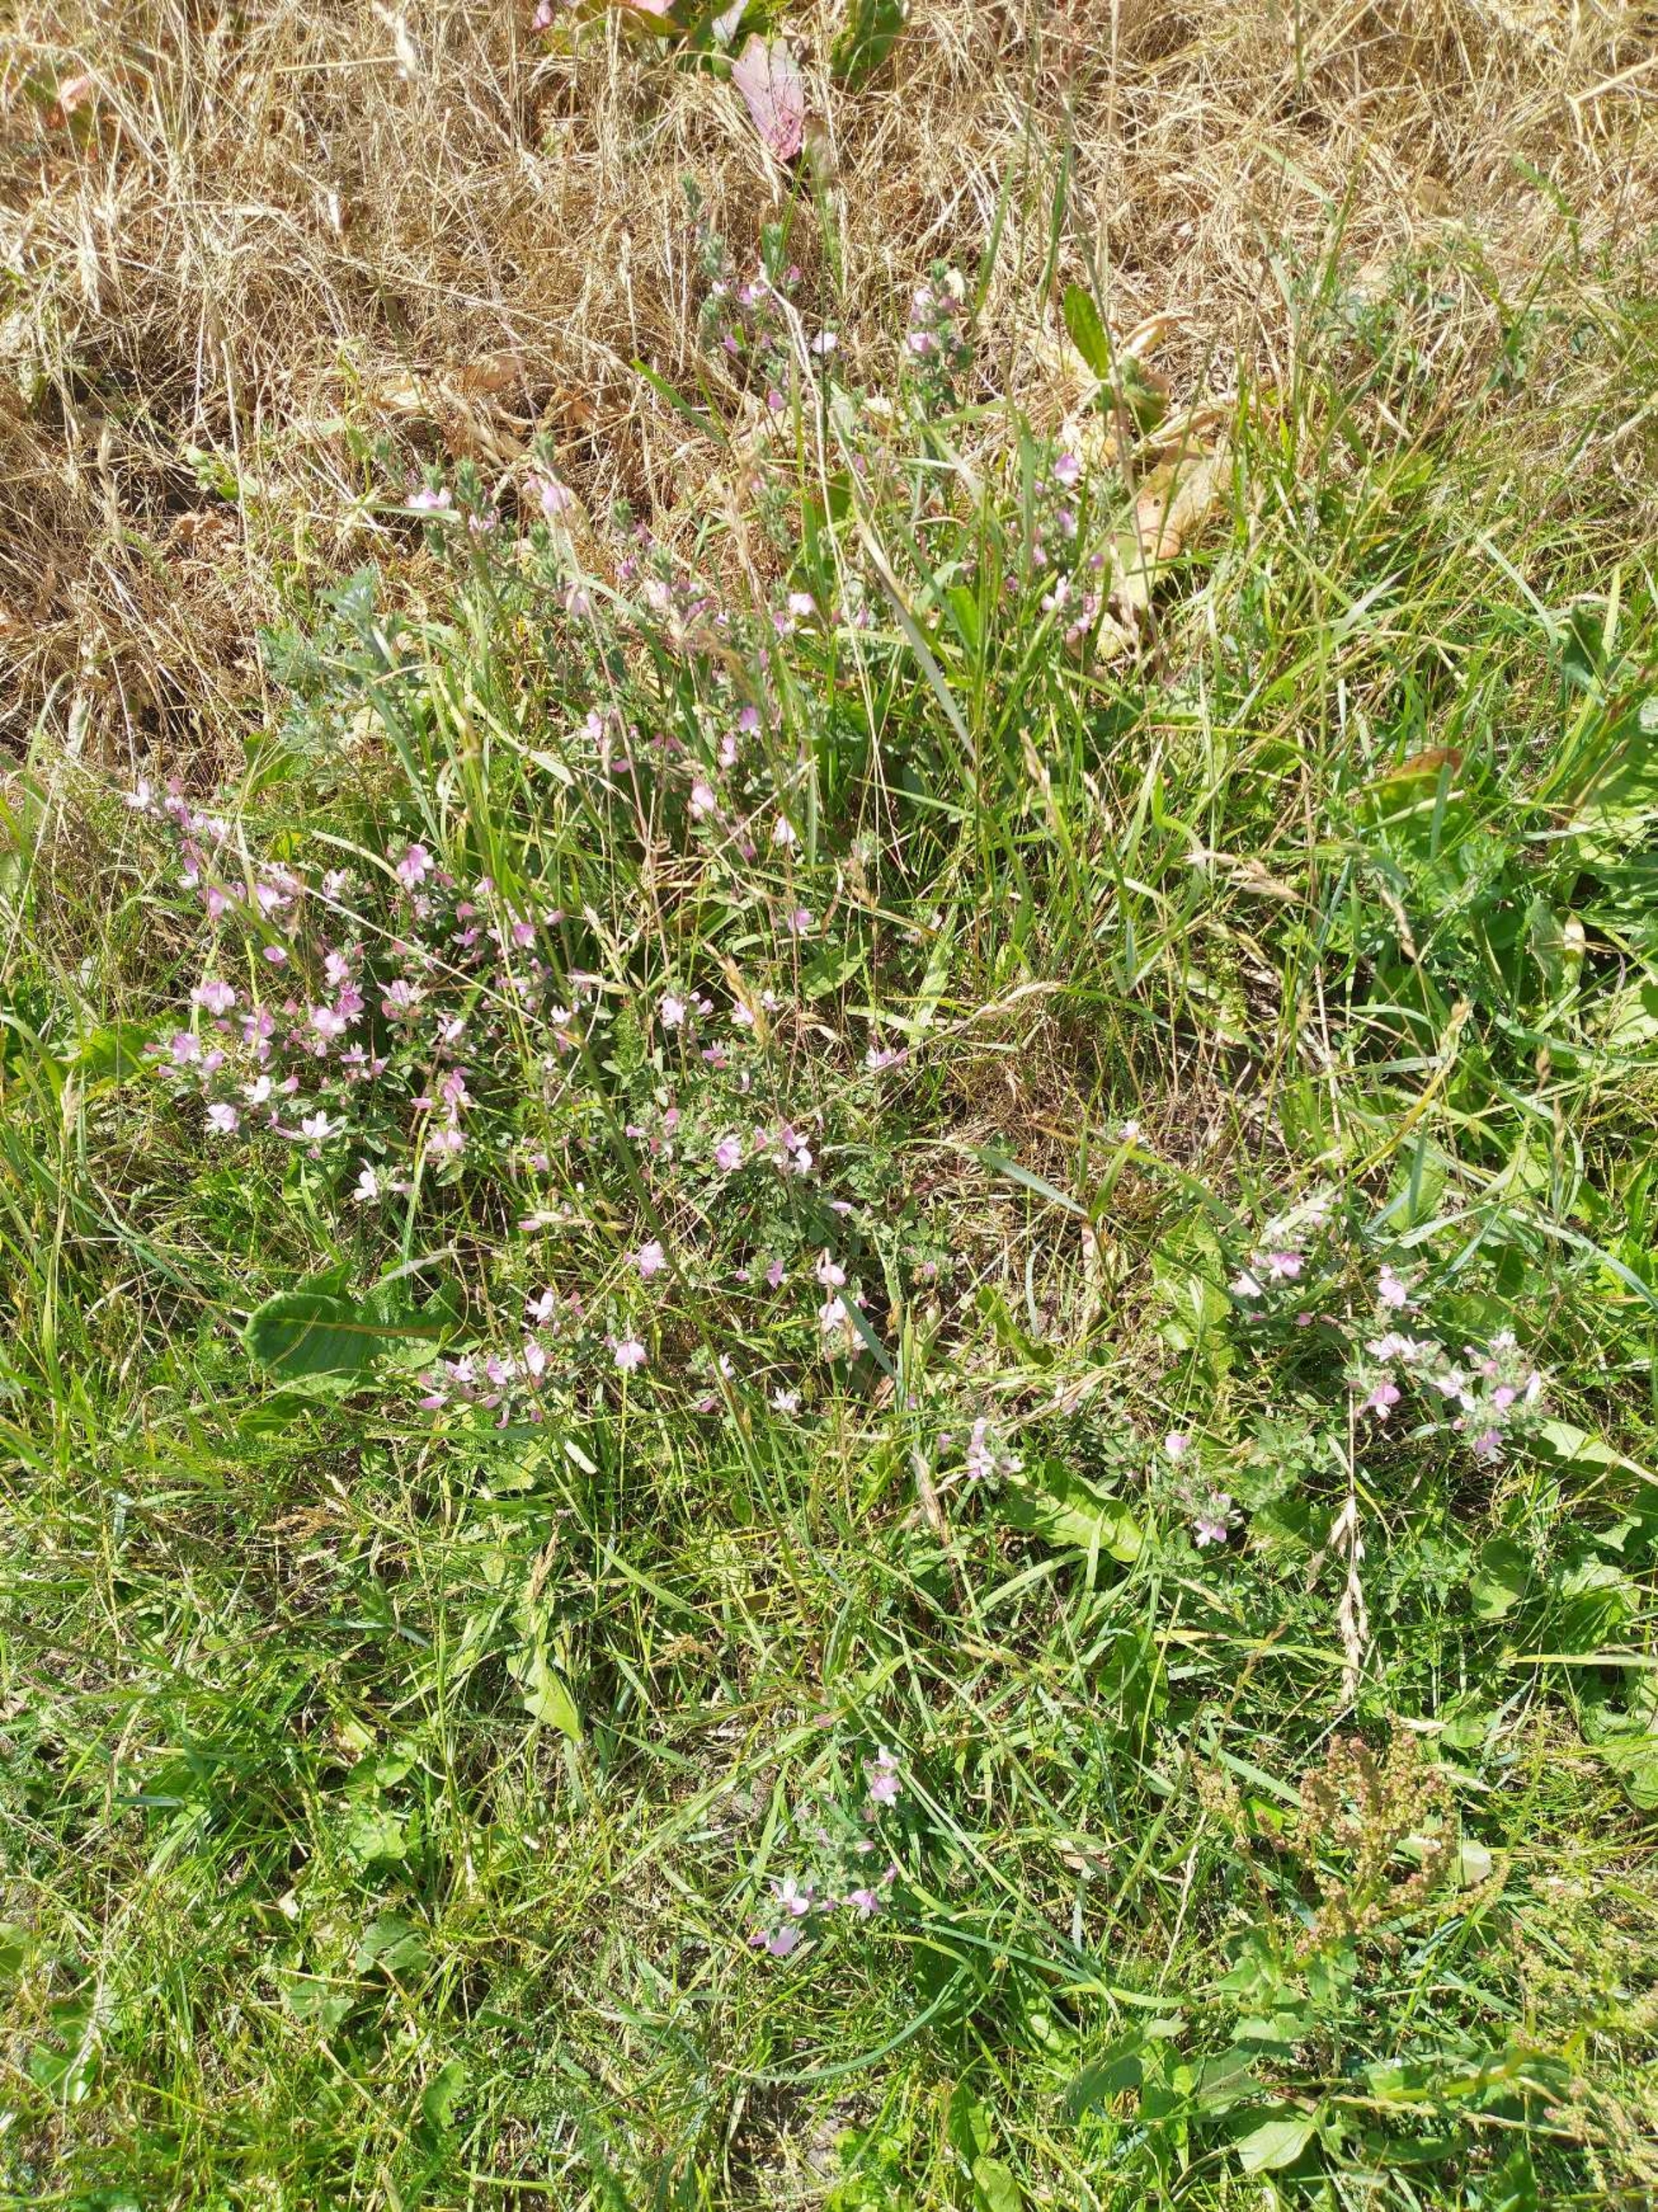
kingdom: Plantae
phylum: Tracheophyta
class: Magnoliopsida
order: Fabales
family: Fabaceae
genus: Ononis
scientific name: Ononis spinosa
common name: Mark-krageklo
